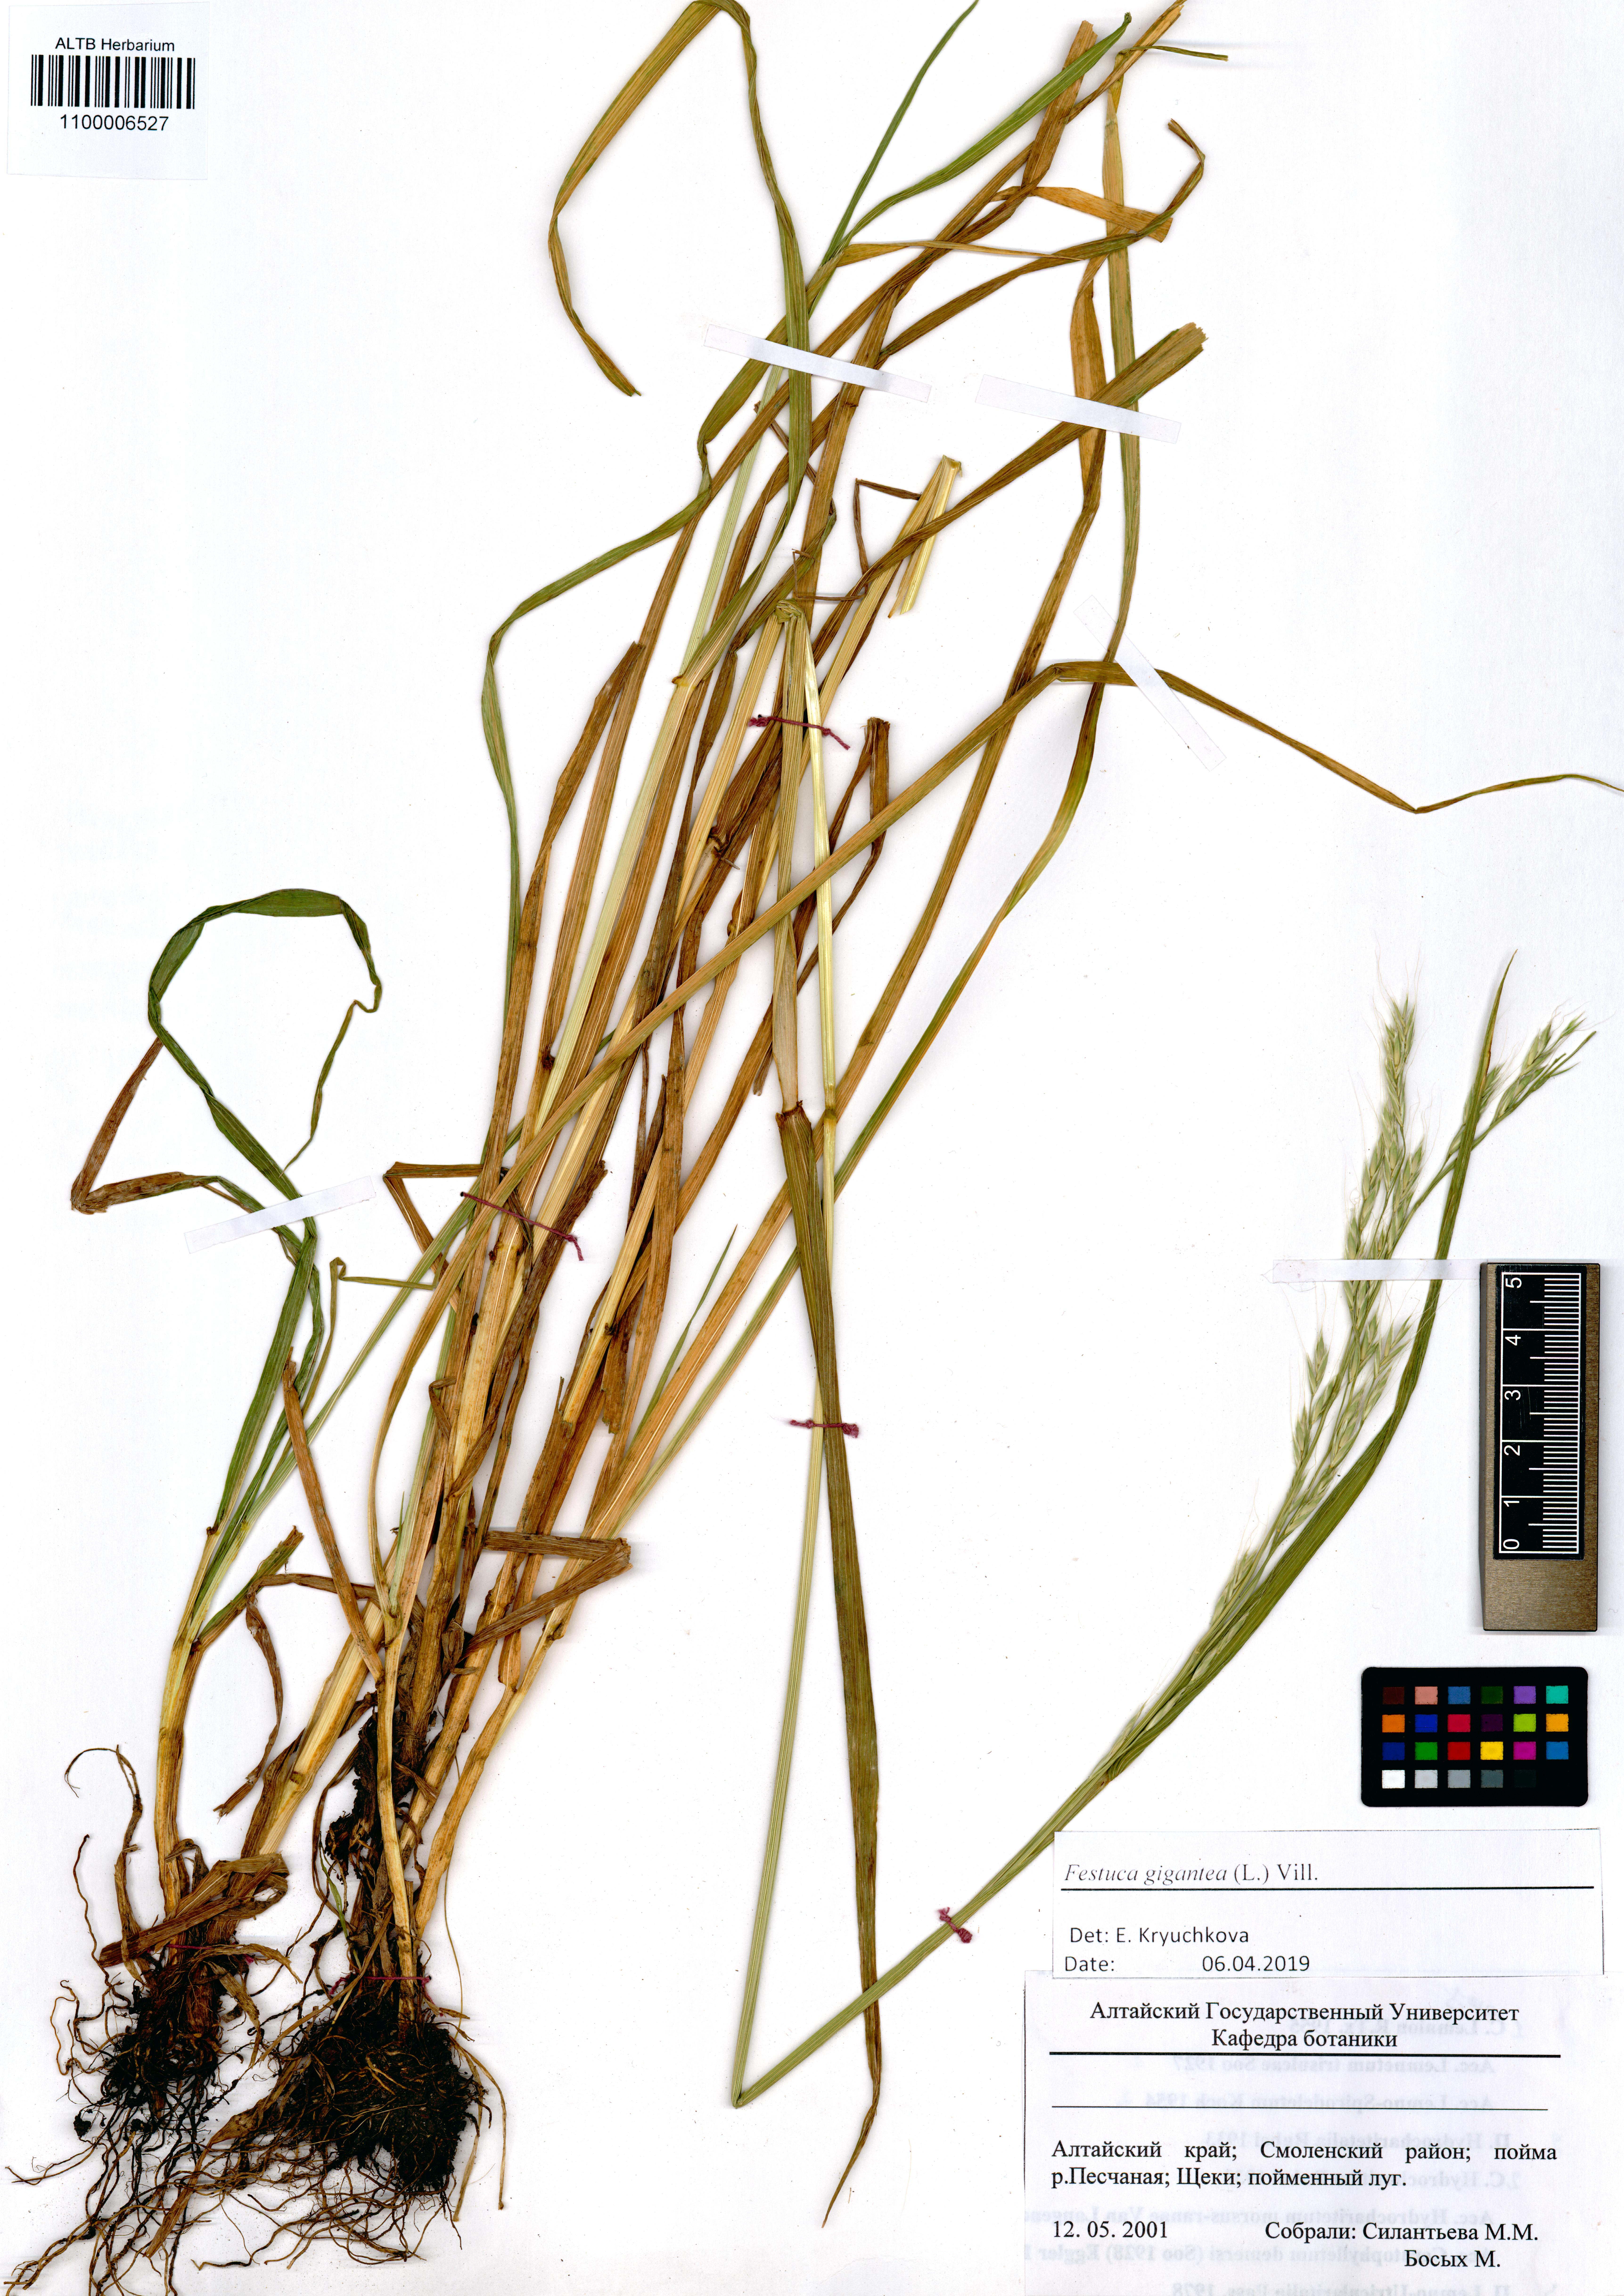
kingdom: Plantae
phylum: Tracheophyta
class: Liliopsida
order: Poales
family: Poaceae
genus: Lolium
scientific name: Lolium giganteum
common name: Giant fescue
